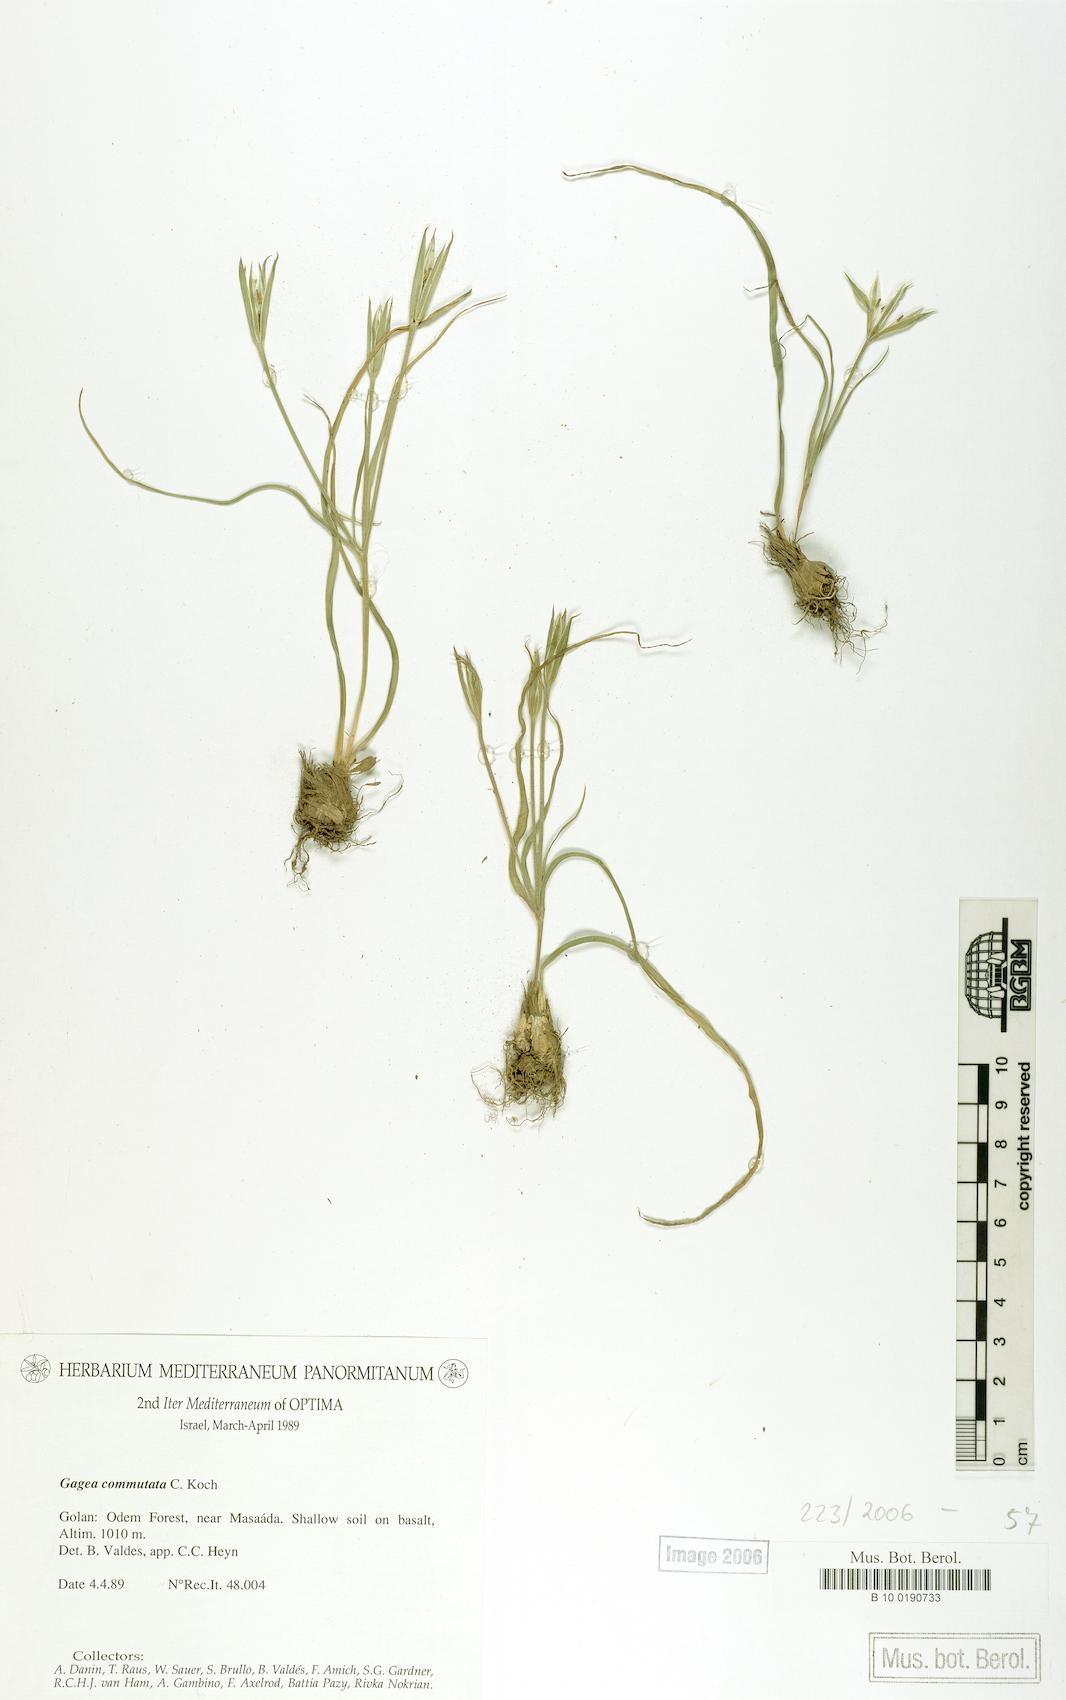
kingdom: Plantae
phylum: Tracheophyta
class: Liliopsida
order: Liliales
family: Liliaceae
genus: Gagea
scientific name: Gagea commutata
